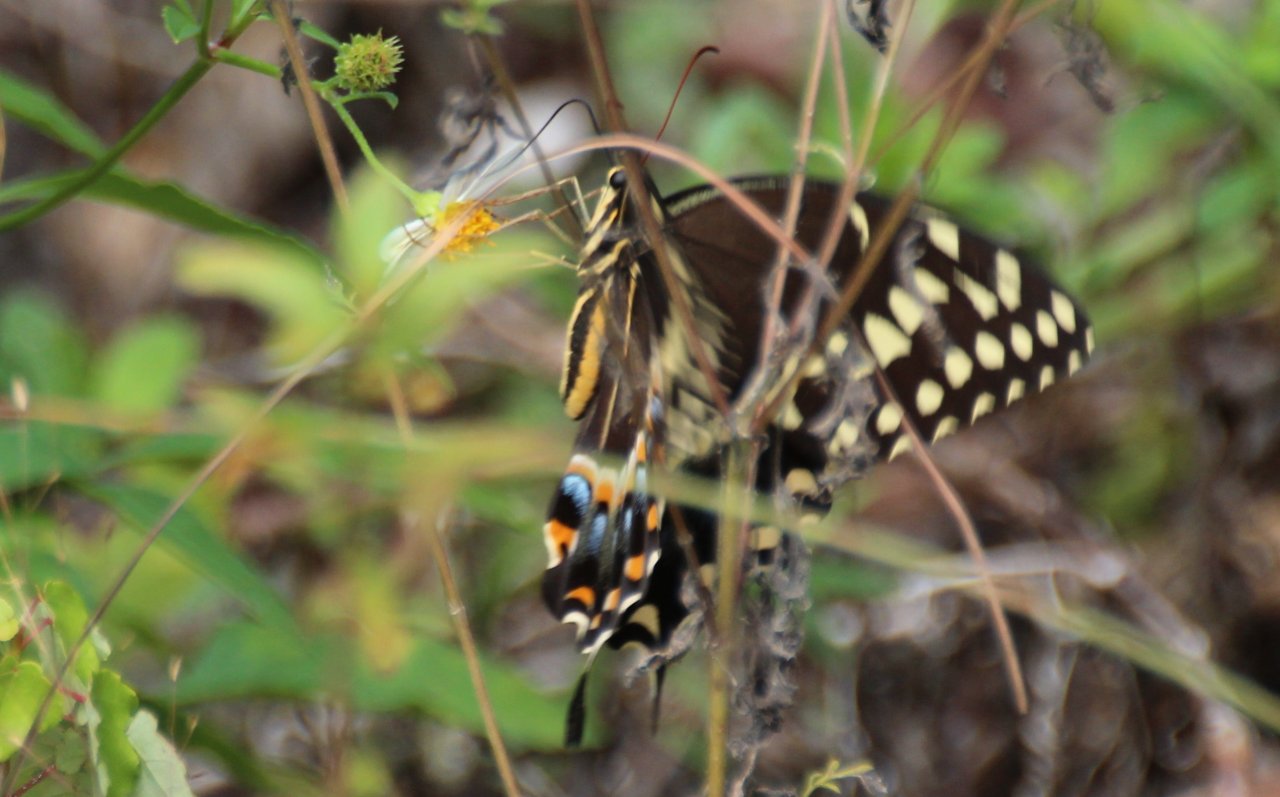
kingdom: Animalia
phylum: Arthropoda
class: Insecta
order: Lepidoptera
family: Papilionidae
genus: Pterourus
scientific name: Pterourus palamedes
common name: Palamedes Swallowtail
